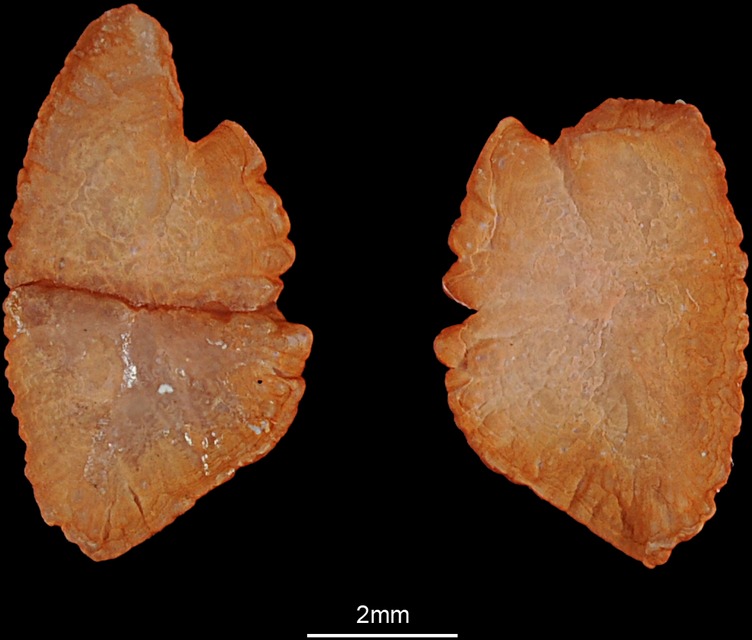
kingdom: Animalia
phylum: Chordata
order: Perciformes
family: Nemipteridae
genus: Nemipterus
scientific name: Nemipterus peronii
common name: Peron's threadfin bream
